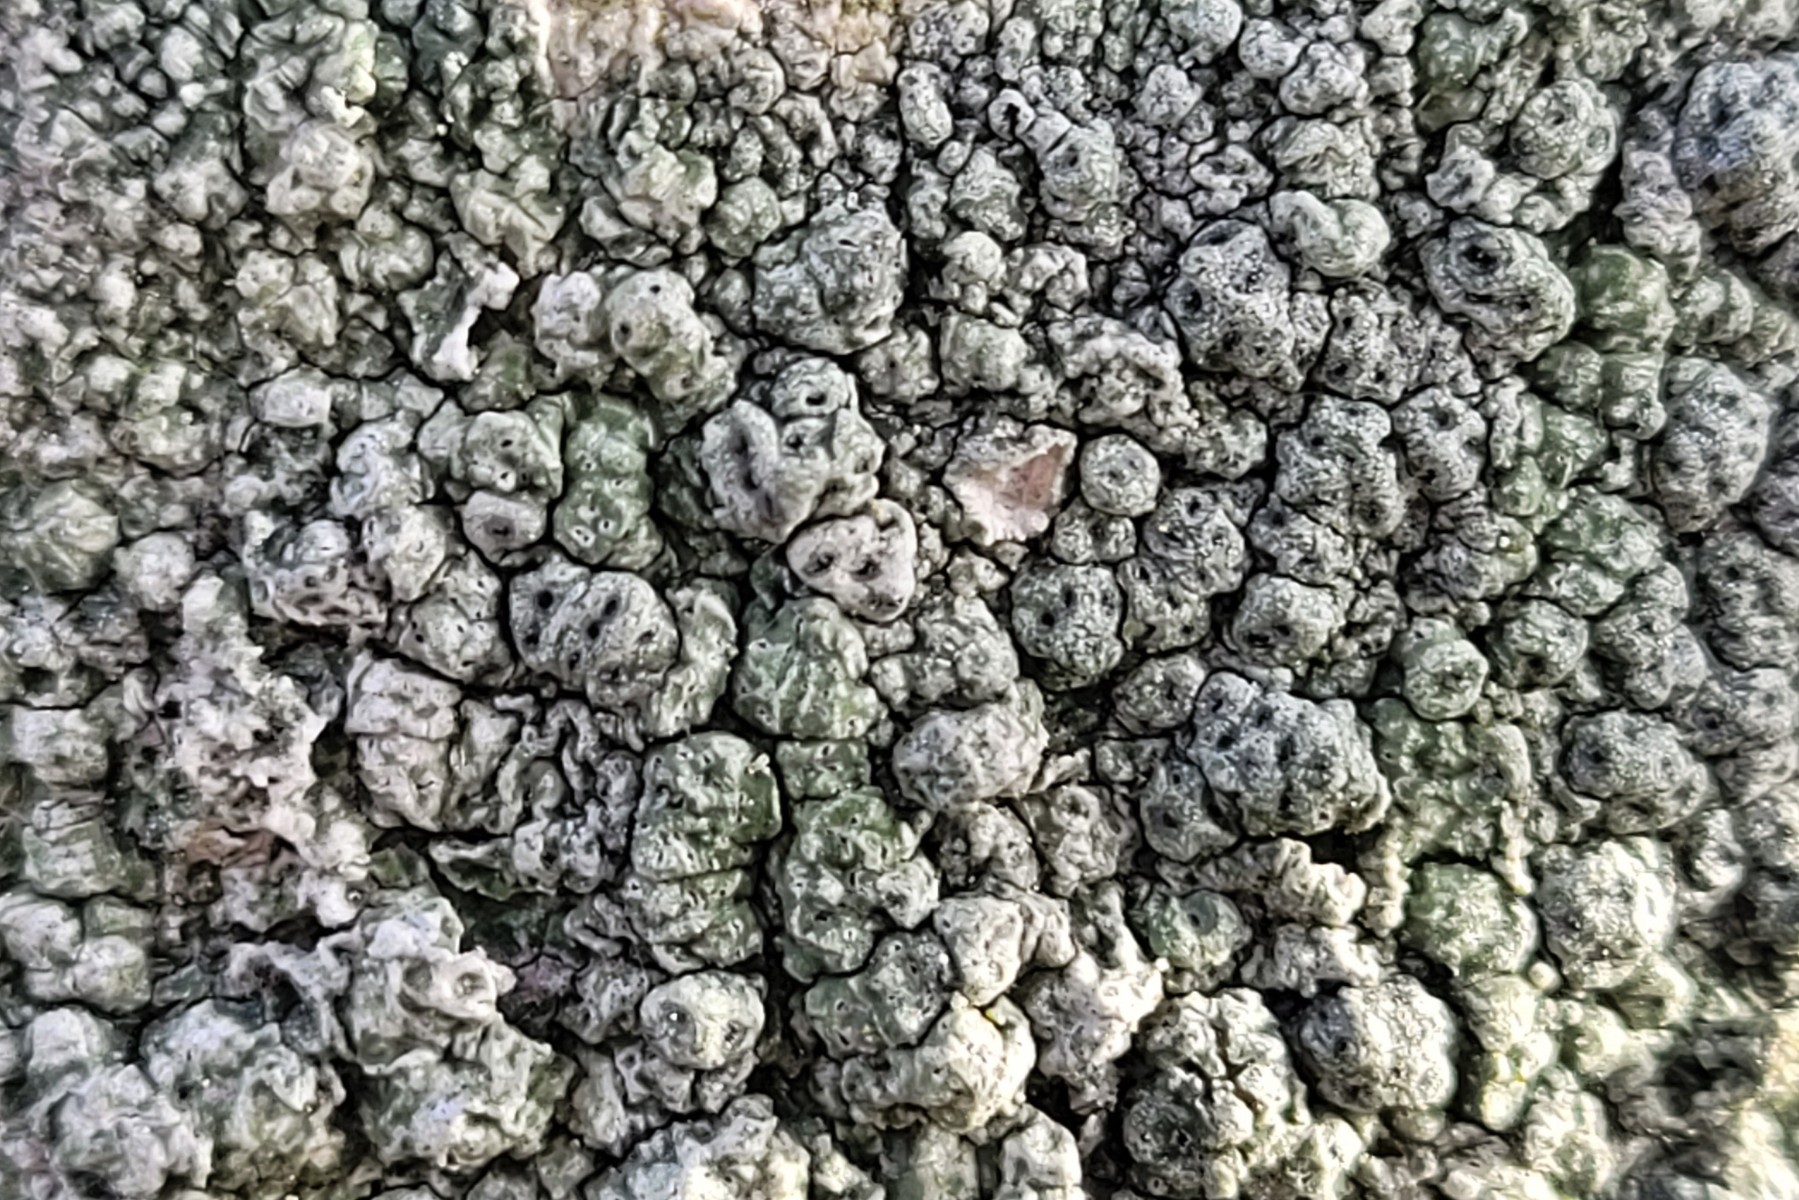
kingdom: Fungi
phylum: Ascomycota
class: Lecanoromycetes
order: Pertusariales
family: Pertusariaceae
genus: Pertusaria
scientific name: Pertusaria pertusa
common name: almindelig prikvortelav
